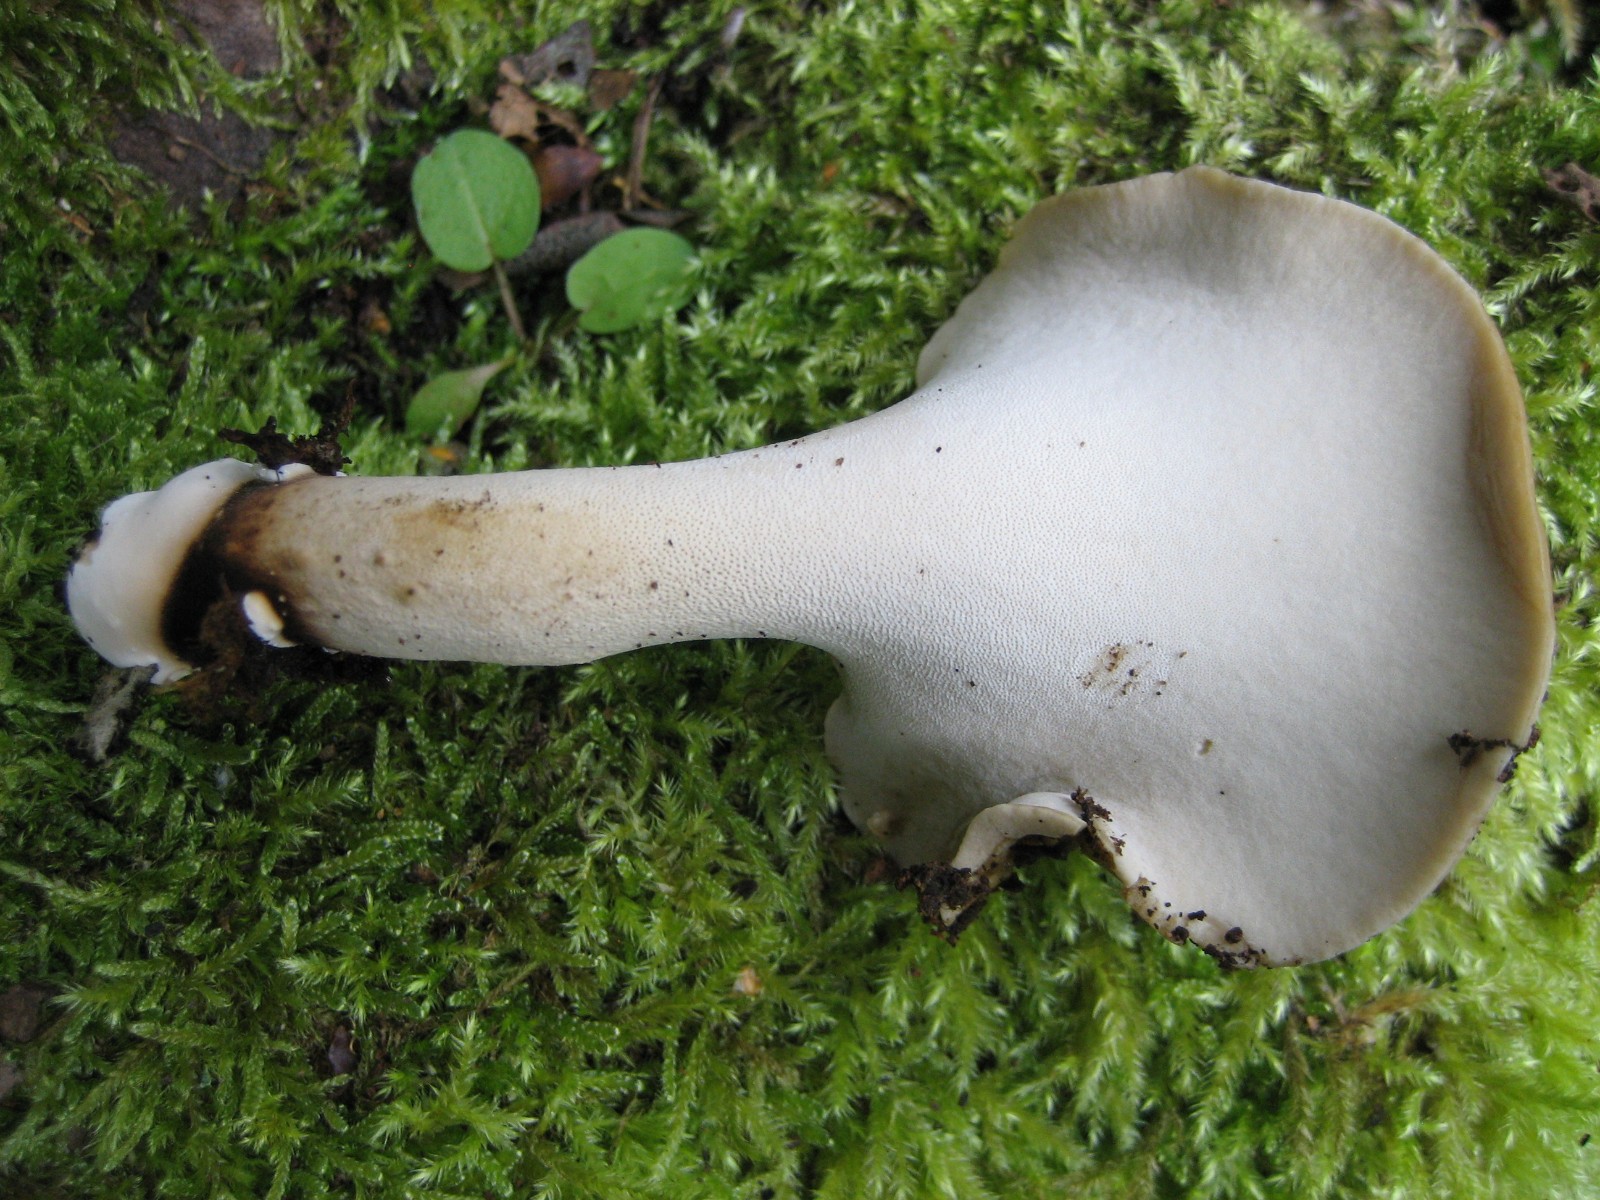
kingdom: Fungi
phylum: Basidiomycota
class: Agaricomycetes
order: Polyporales
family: Polyporaceae
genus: Cerioporus
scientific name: Cerioporus varius
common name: foranderlig stilkporesvamp
